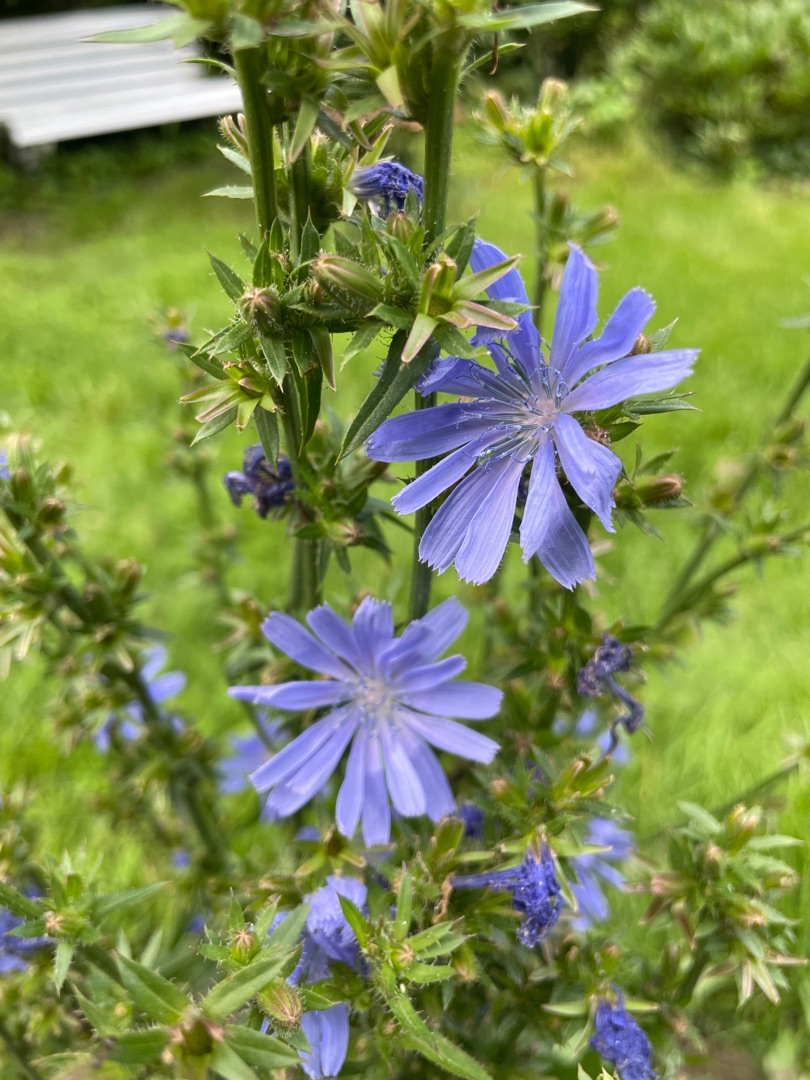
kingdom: Plantae
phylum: Tracheophyta
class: Magnoliopsida
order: Asterales
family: Asteraceae
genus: Cichorium
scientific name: Cichorium intybus
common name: Cikorie
